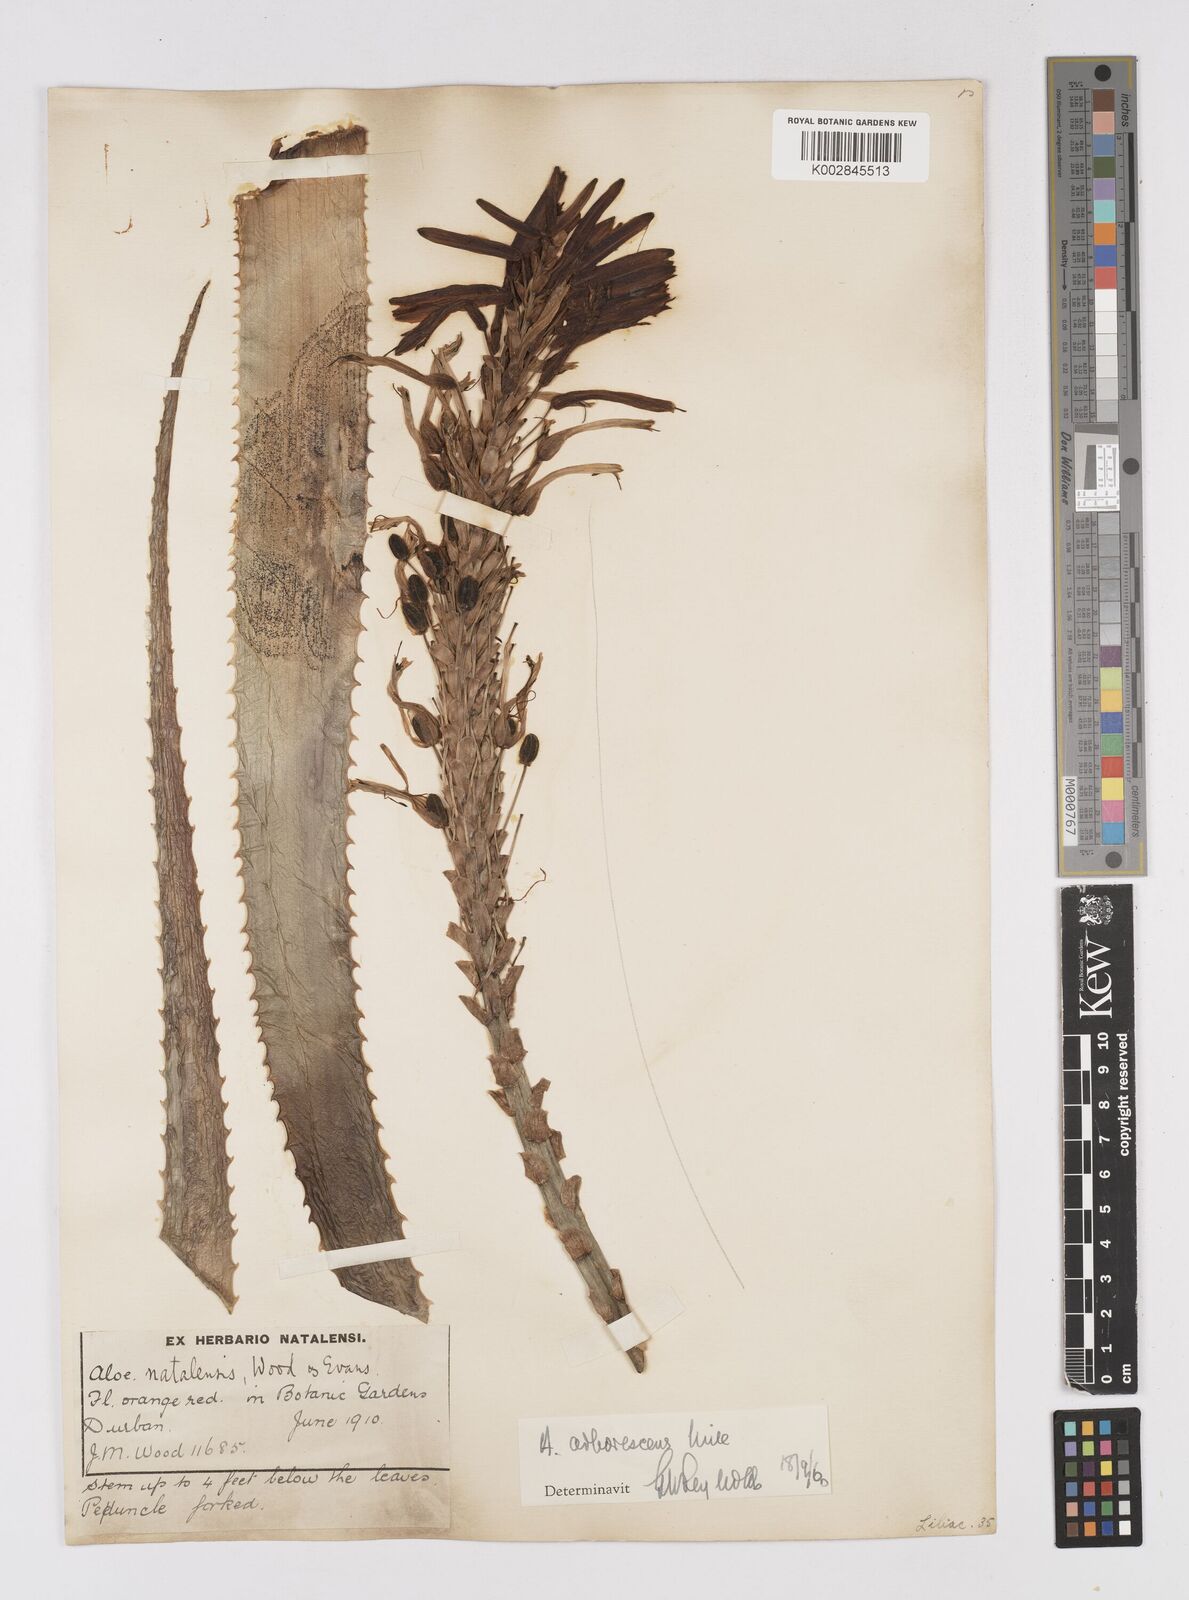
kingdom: Plantae
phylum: Tracheophyta
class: Liliopsida
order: Asparagales
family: Asphodelaceae
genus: Aloe
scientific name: Aloe arborescens
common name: Candelabra aloe
